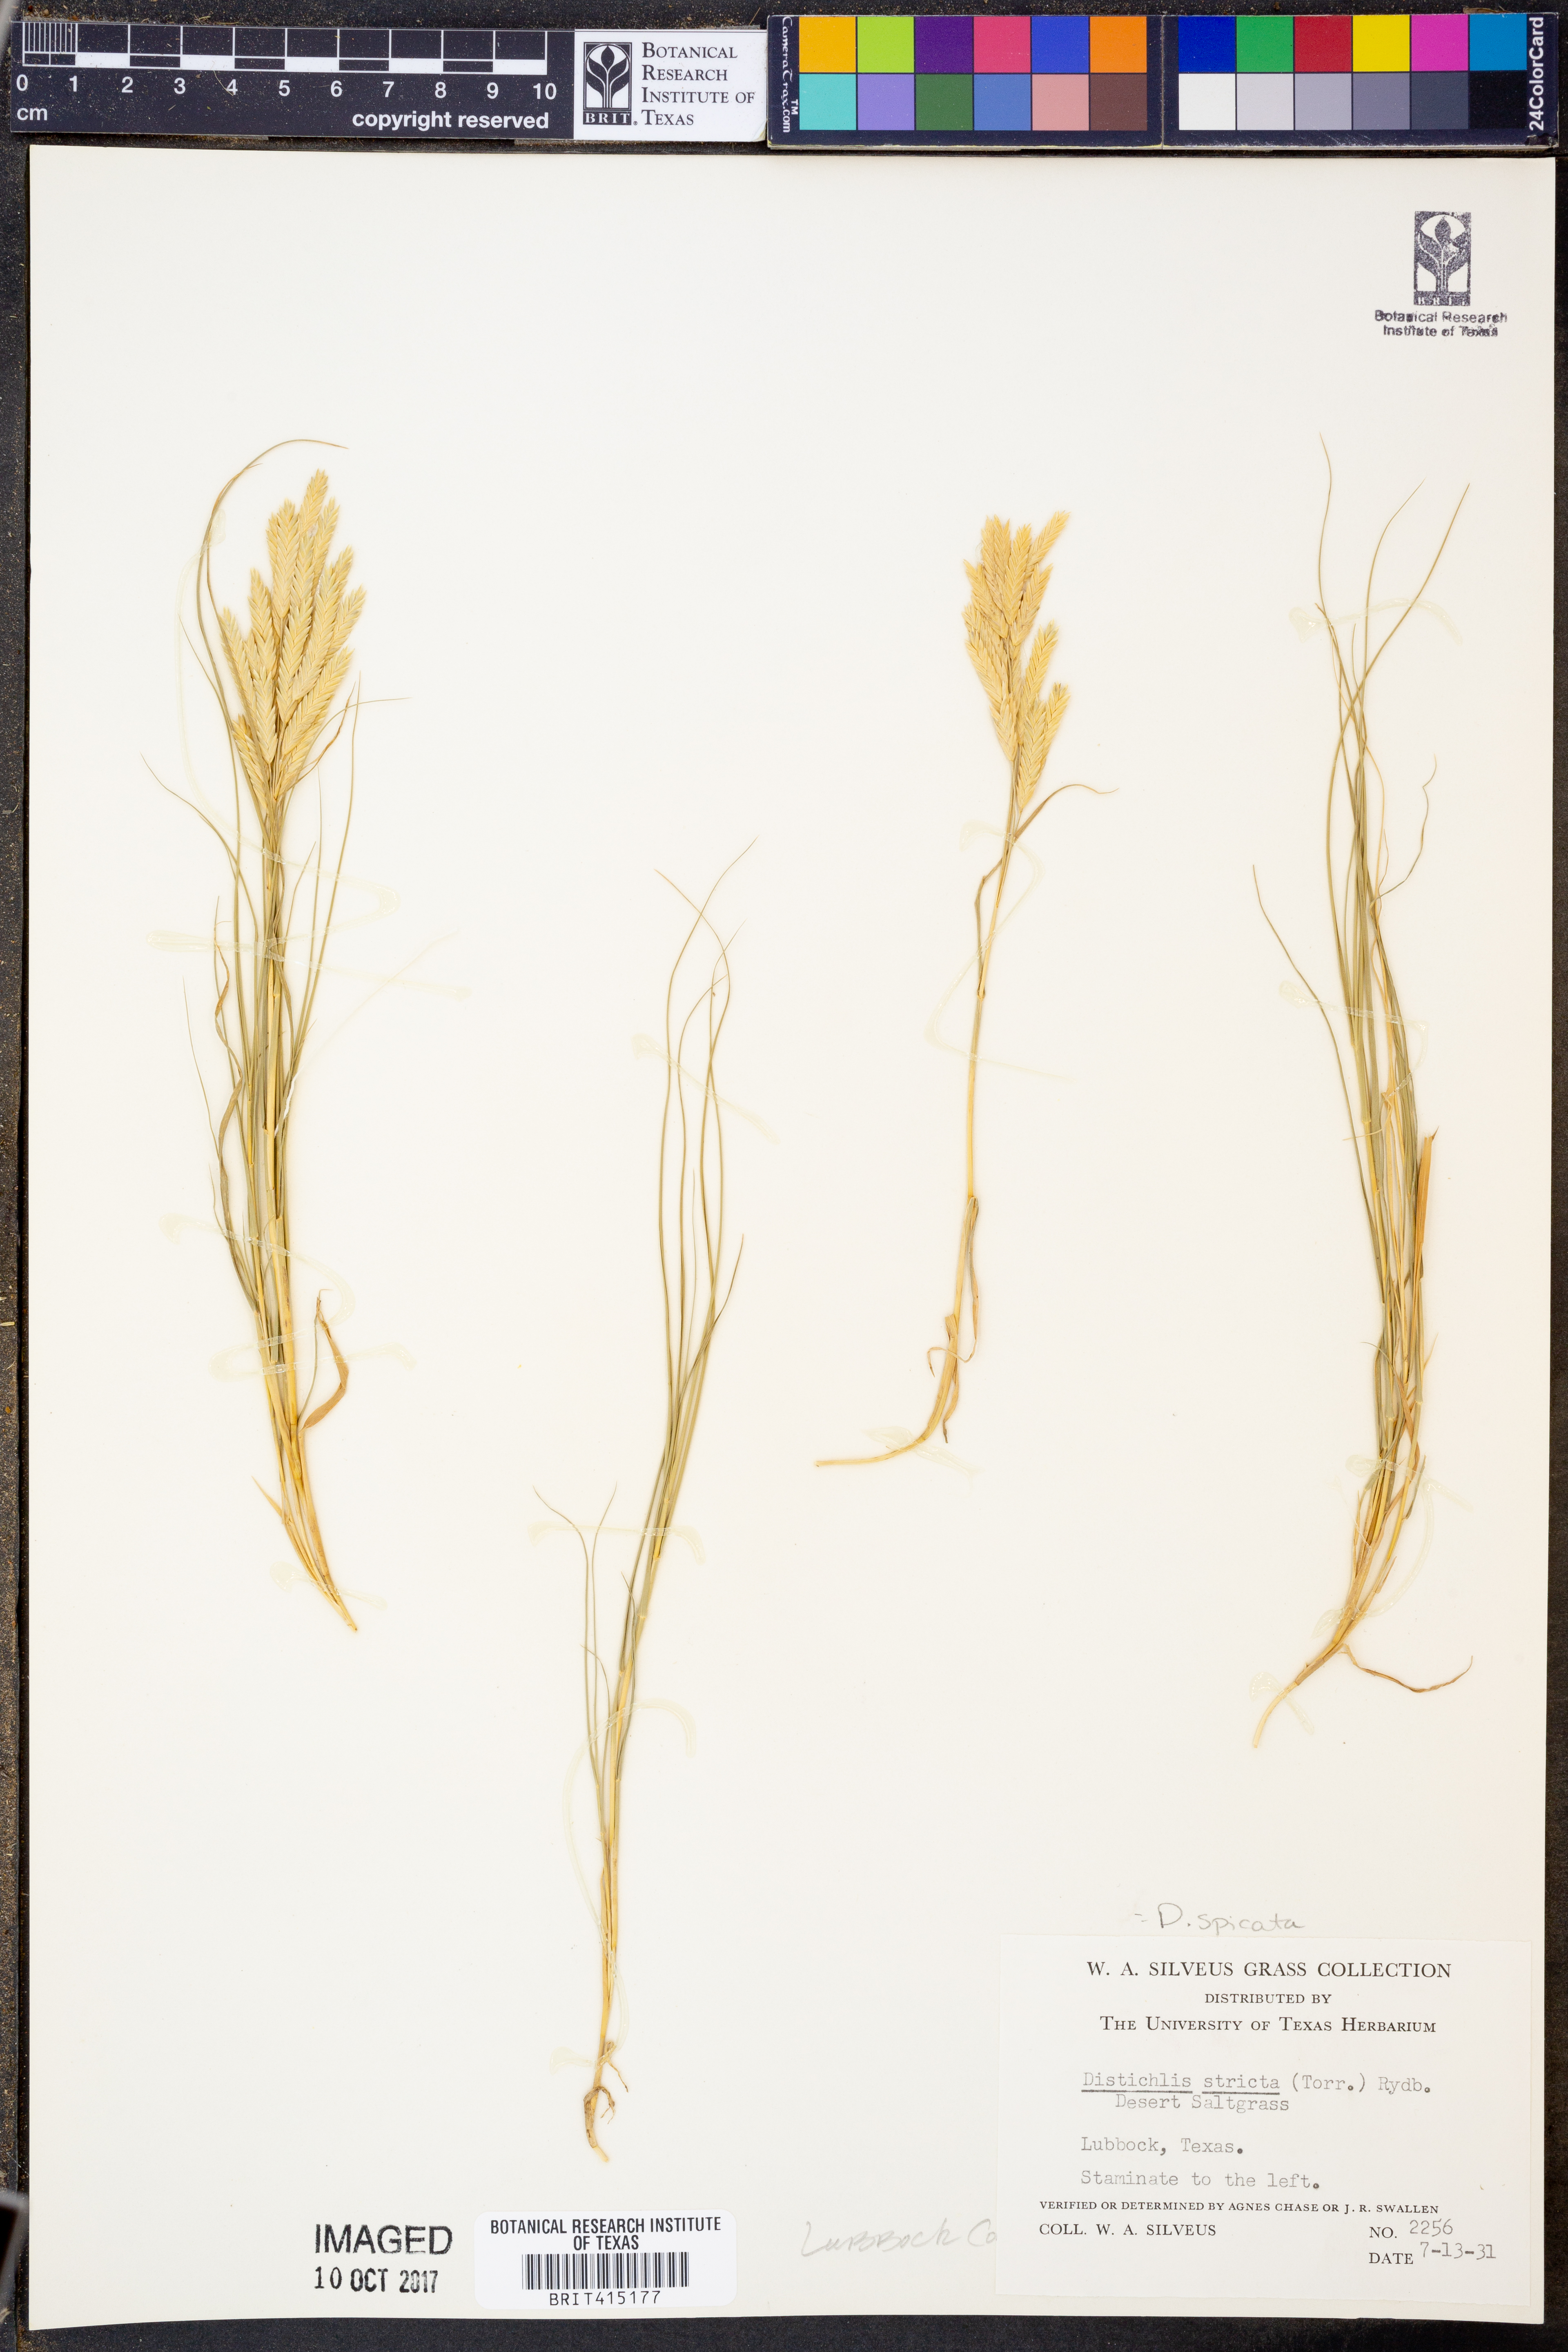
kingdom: Plantae
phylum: Tracheophyta
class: Liliopsida
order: Poales
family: Poaceae
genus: Distichlis
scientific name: Distichlis spicata
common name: Saltgrass
